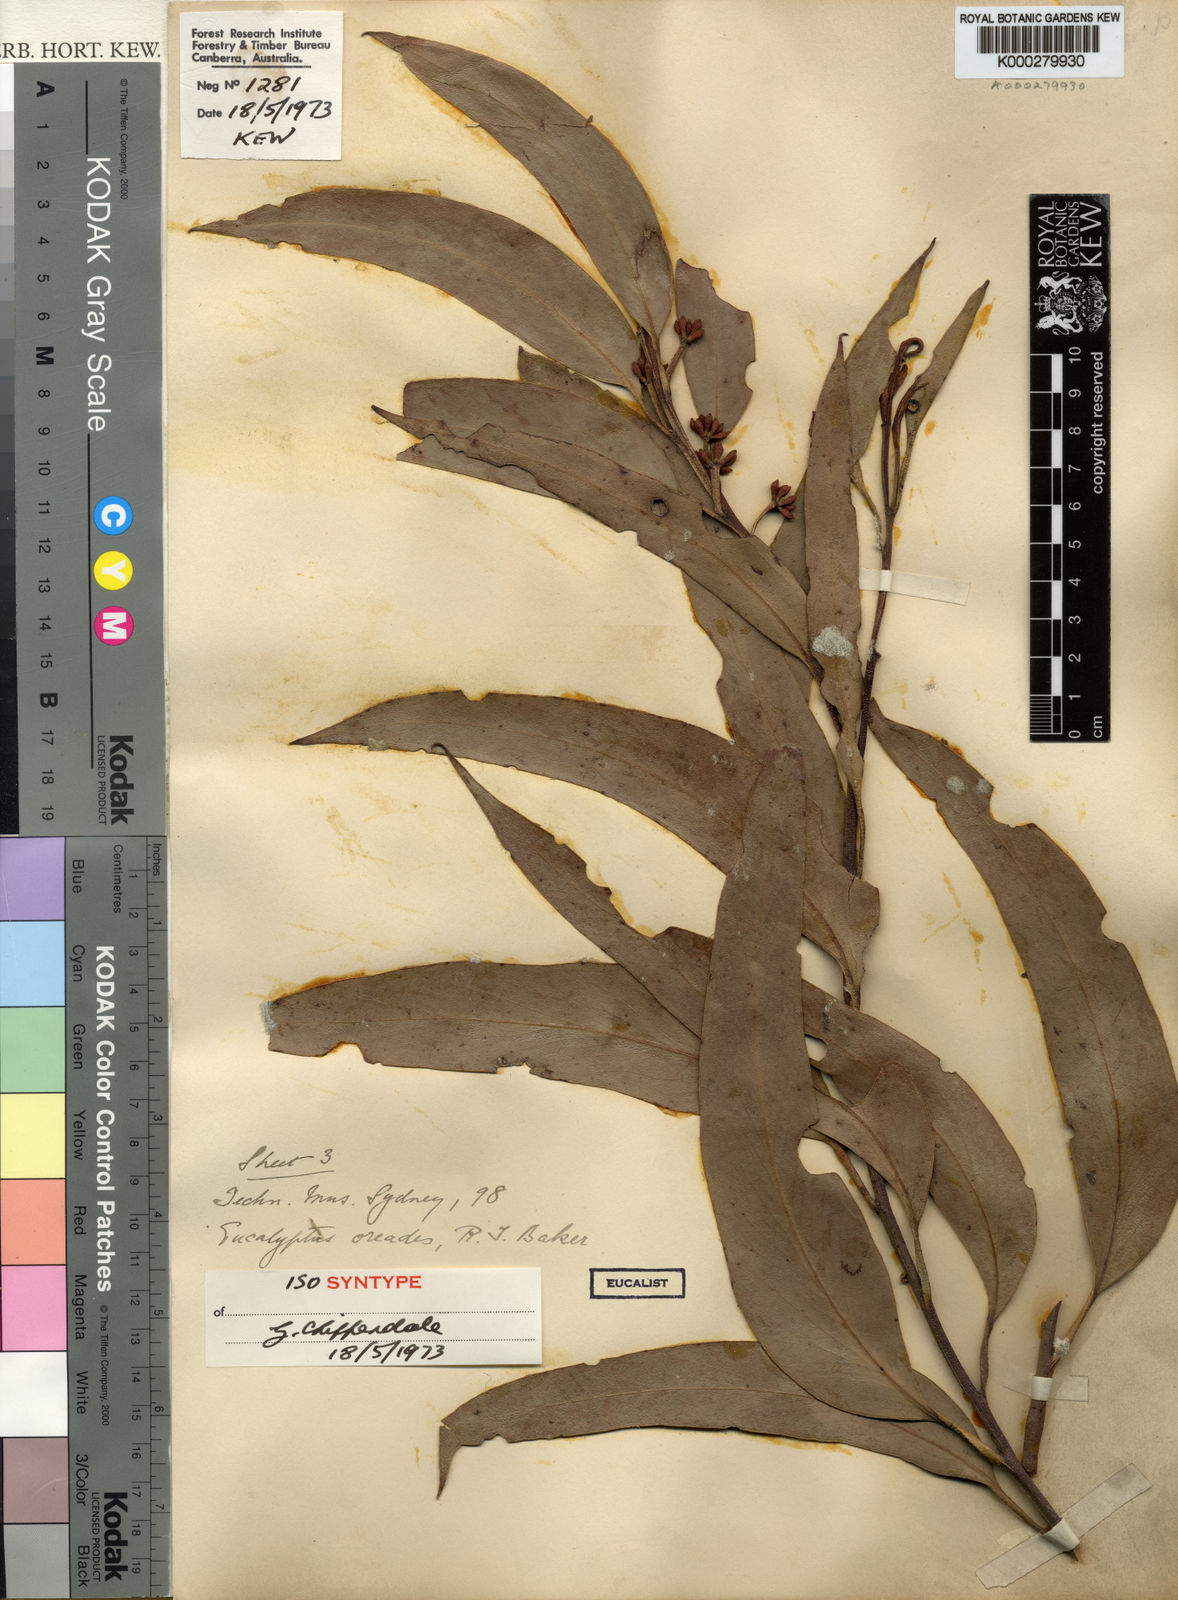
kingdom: Plantae
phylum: Tracheophyta
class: Magnoliopsida
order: Myrtales
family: Myrtaceae
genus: Eucalyptus
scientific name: Eucalyptus oreades
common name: White-ash
